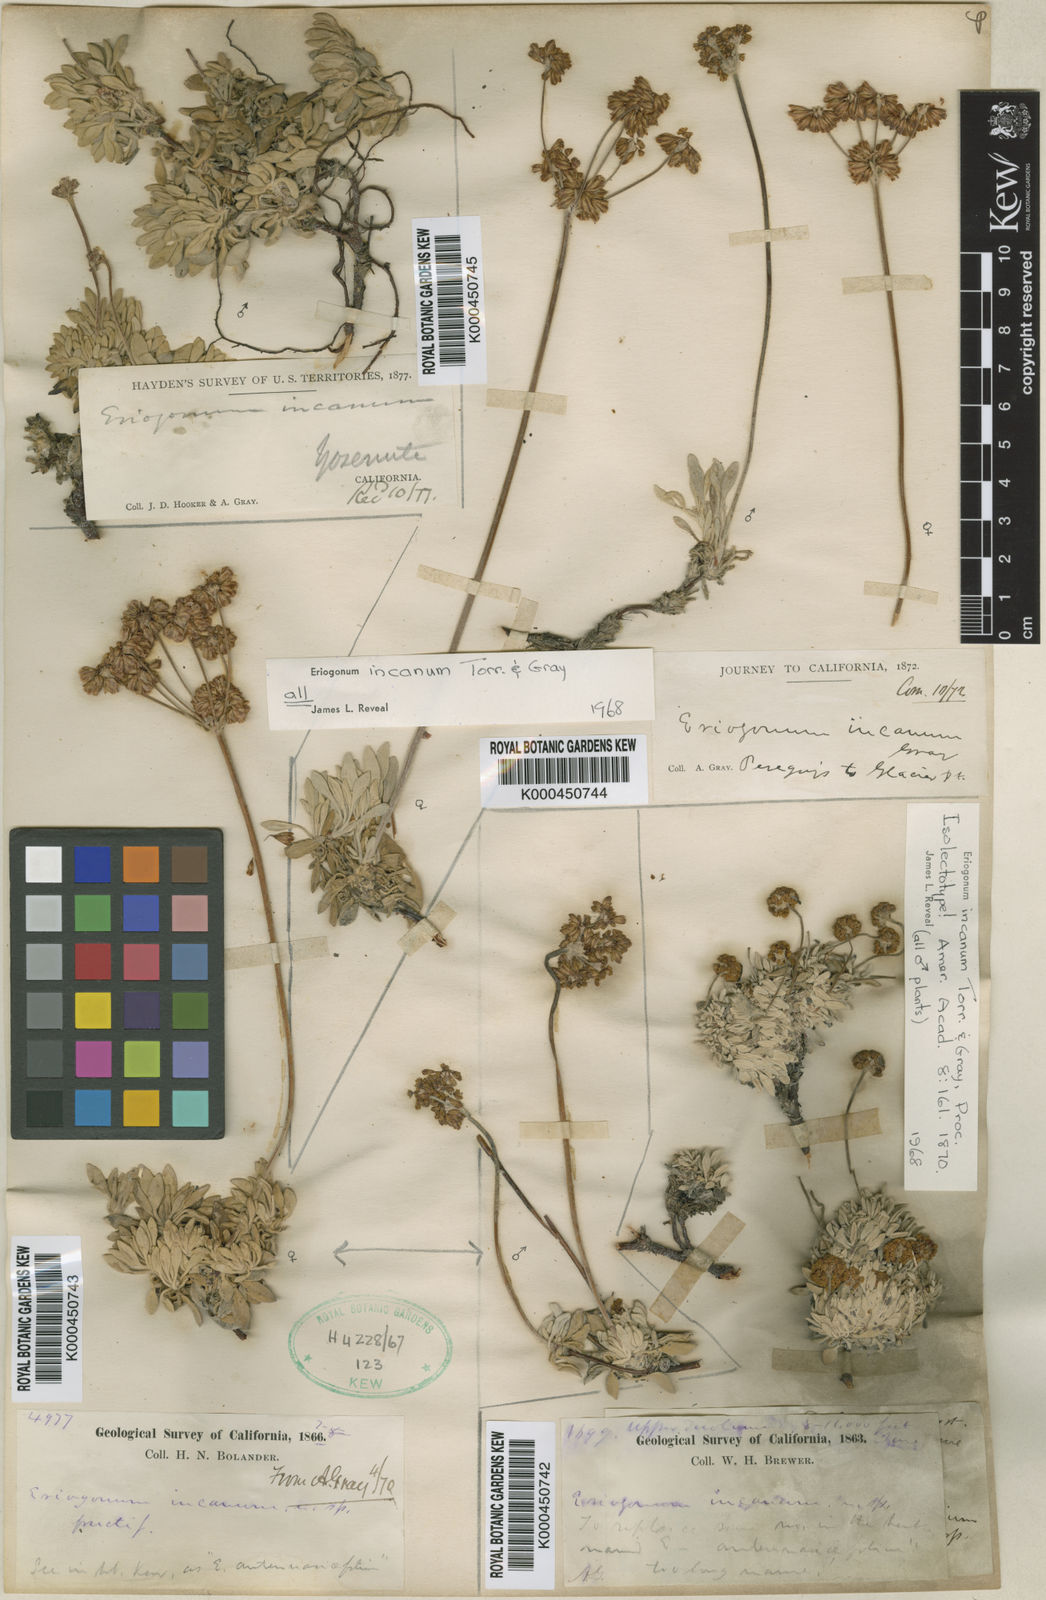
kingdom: Plantae
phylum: Tracheophyta
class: Magnoliopsida
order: Caryophyllales
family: Polygonaceae
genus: Eriogonum
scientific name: Eriogonum incanum
